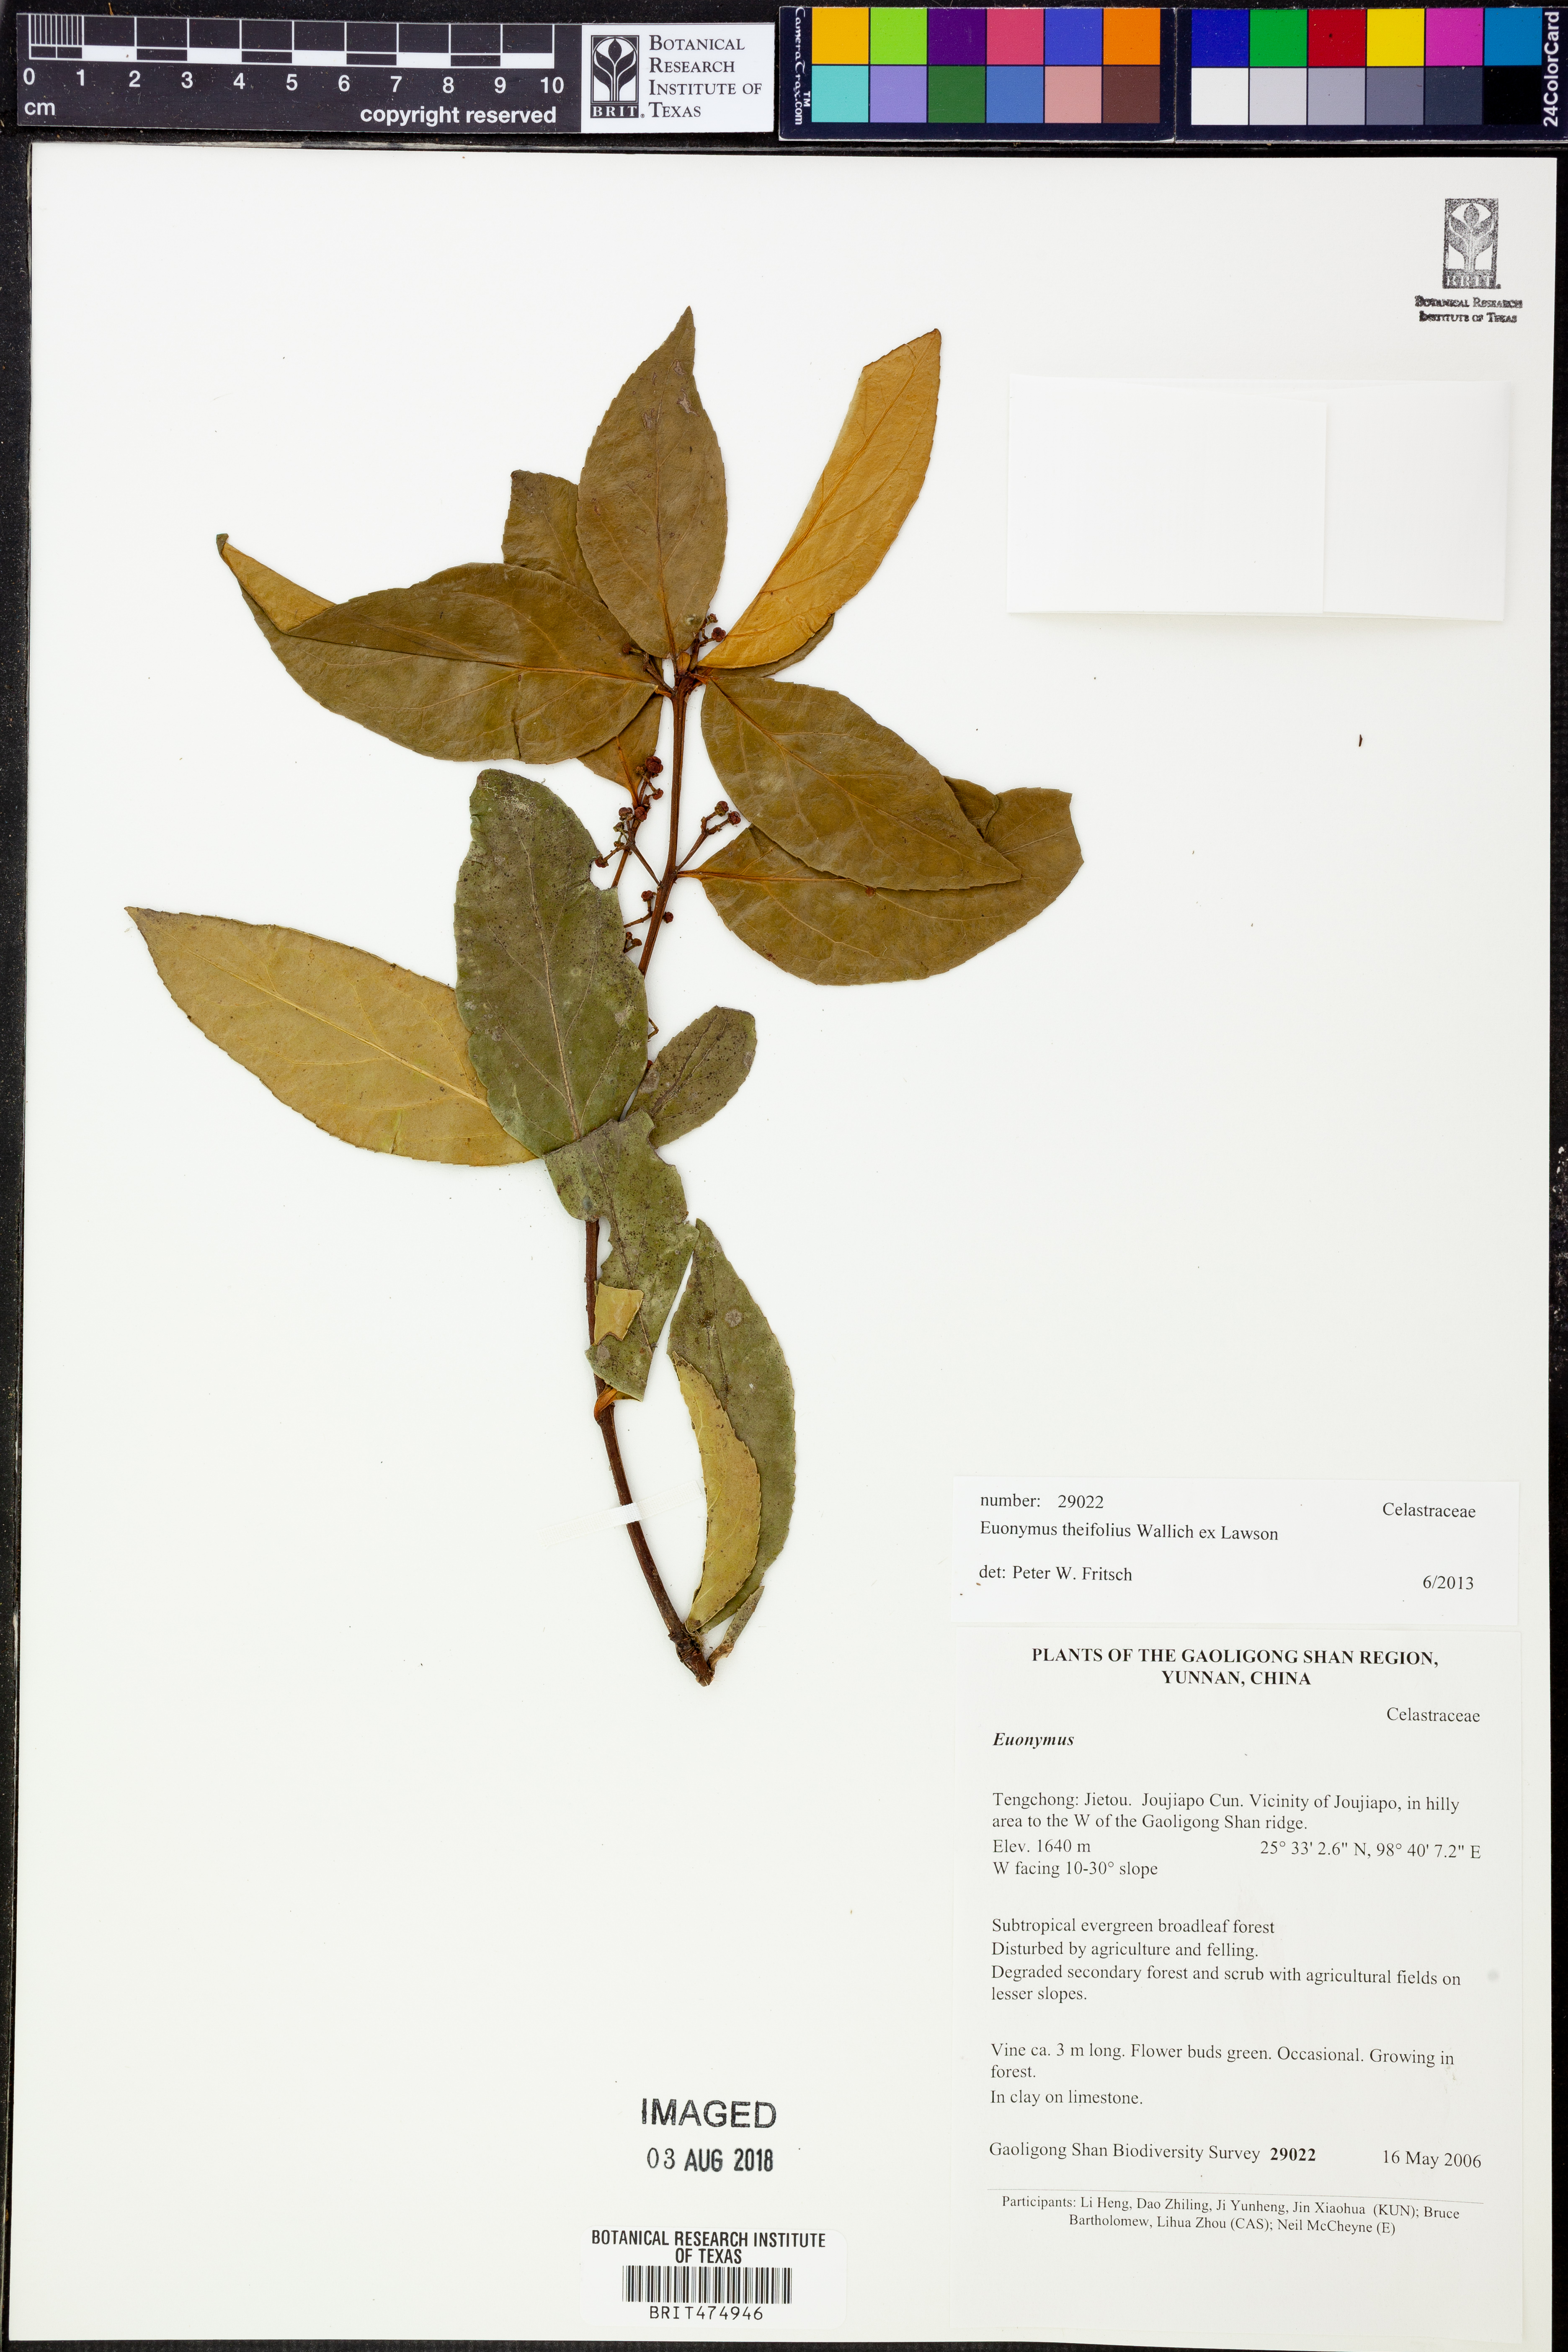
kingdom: Plantae
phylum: Tracheophyta
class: Magnoliopsida
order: Celastrales
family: Celastraceae
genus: Euonymus
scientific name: Euonymus theifolius
